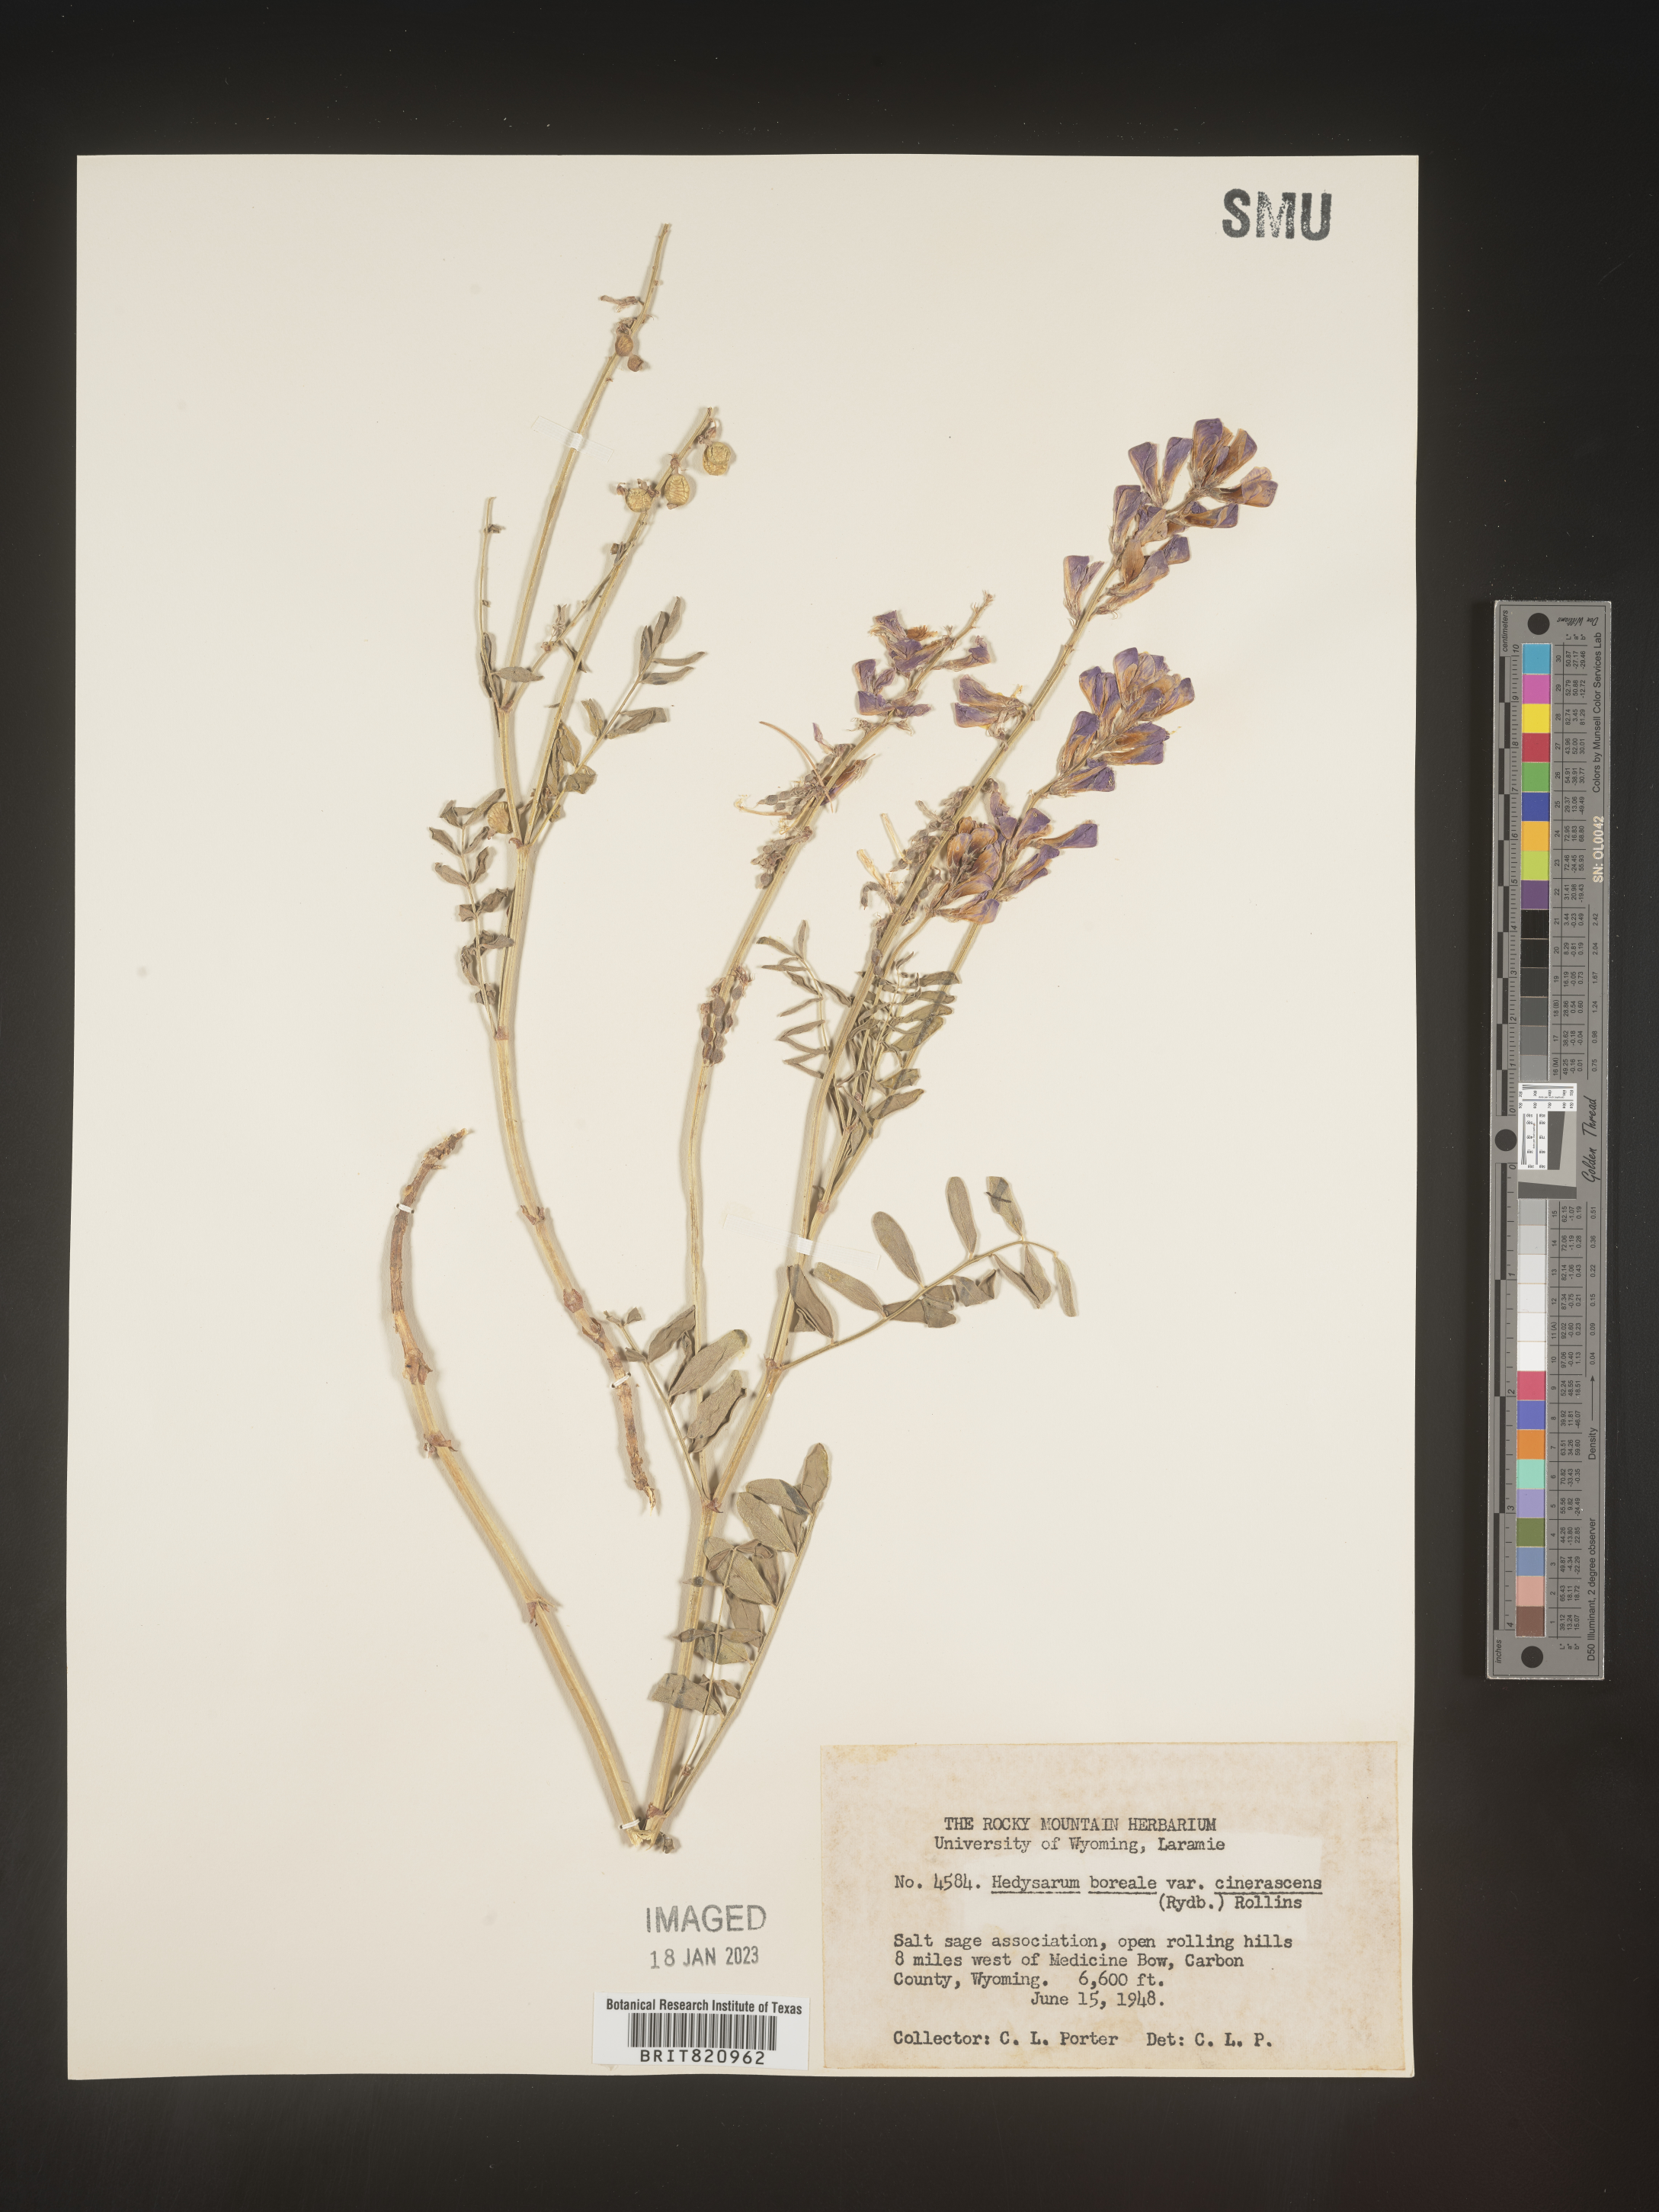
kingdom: Plantae
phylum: Tracheophyta
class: Magnoliopsida
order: Fabales
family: Fabaceae
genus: Hedysarum
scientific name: Hedysarum boreale
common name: Northern sweet-vetch
